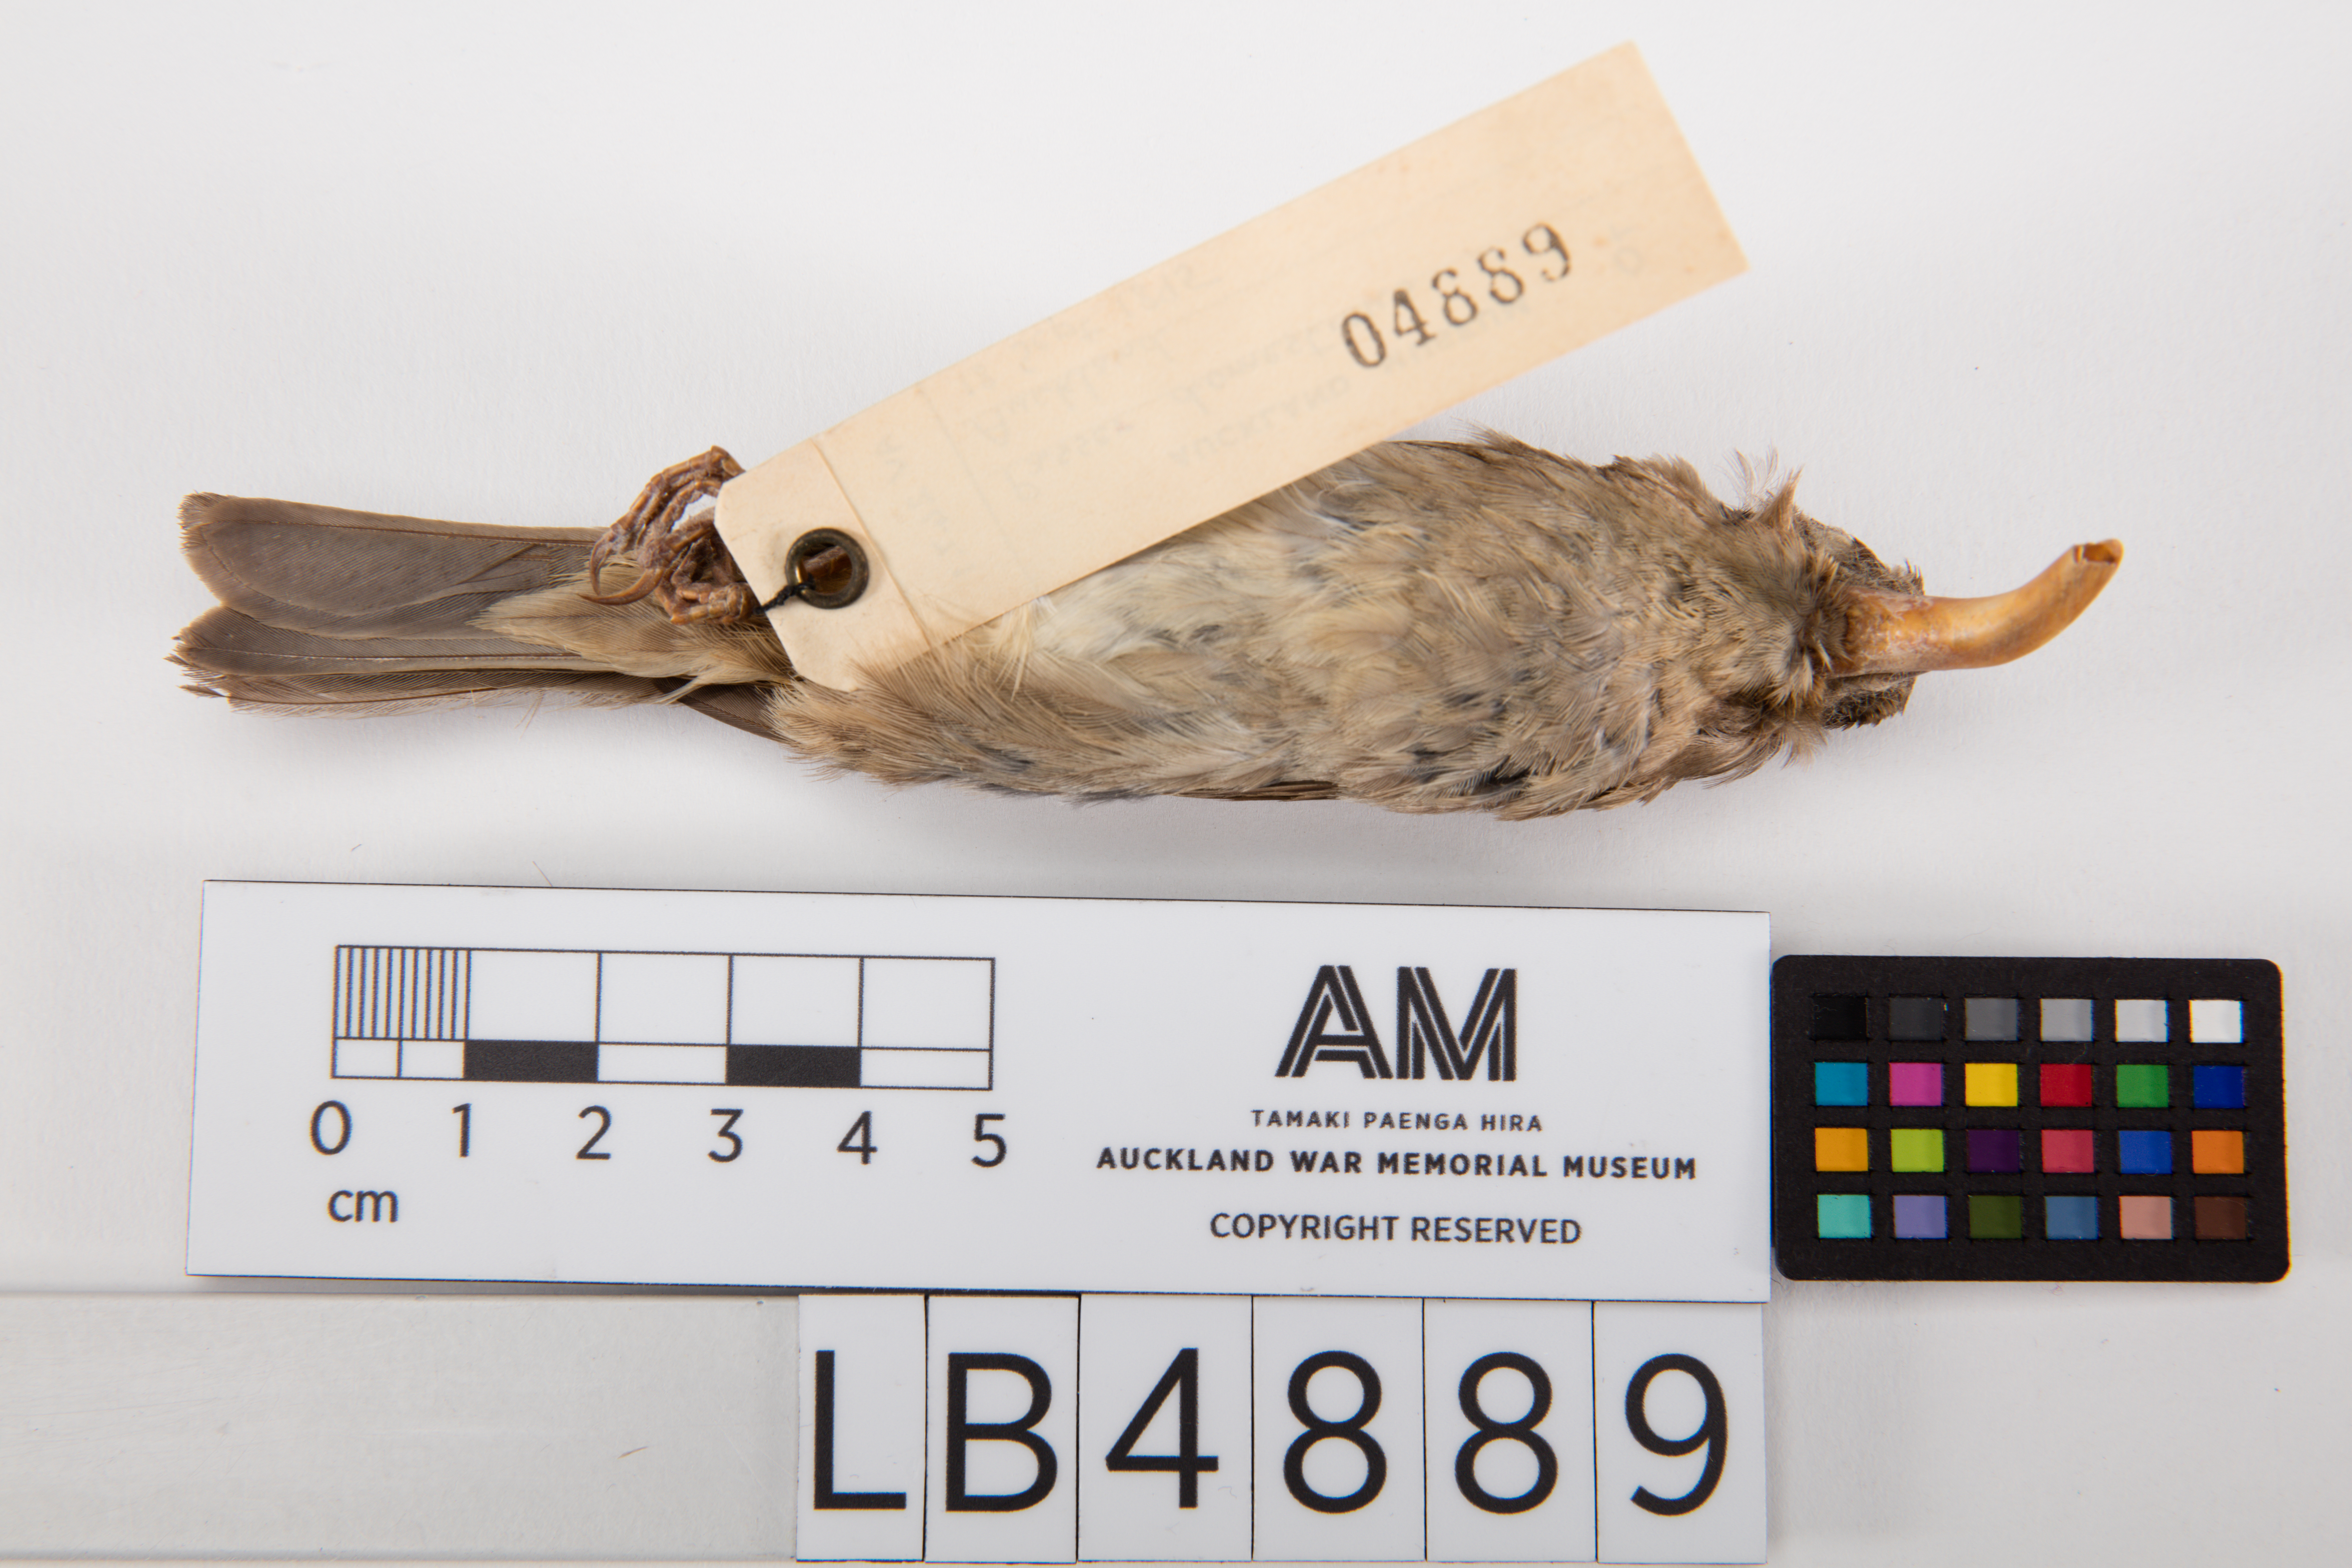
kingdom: Animalia
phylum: Chordata
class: Aves
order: Passeriformes
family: Passeridae
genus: Passer
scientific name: Passer domesticus
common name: House sparrow
